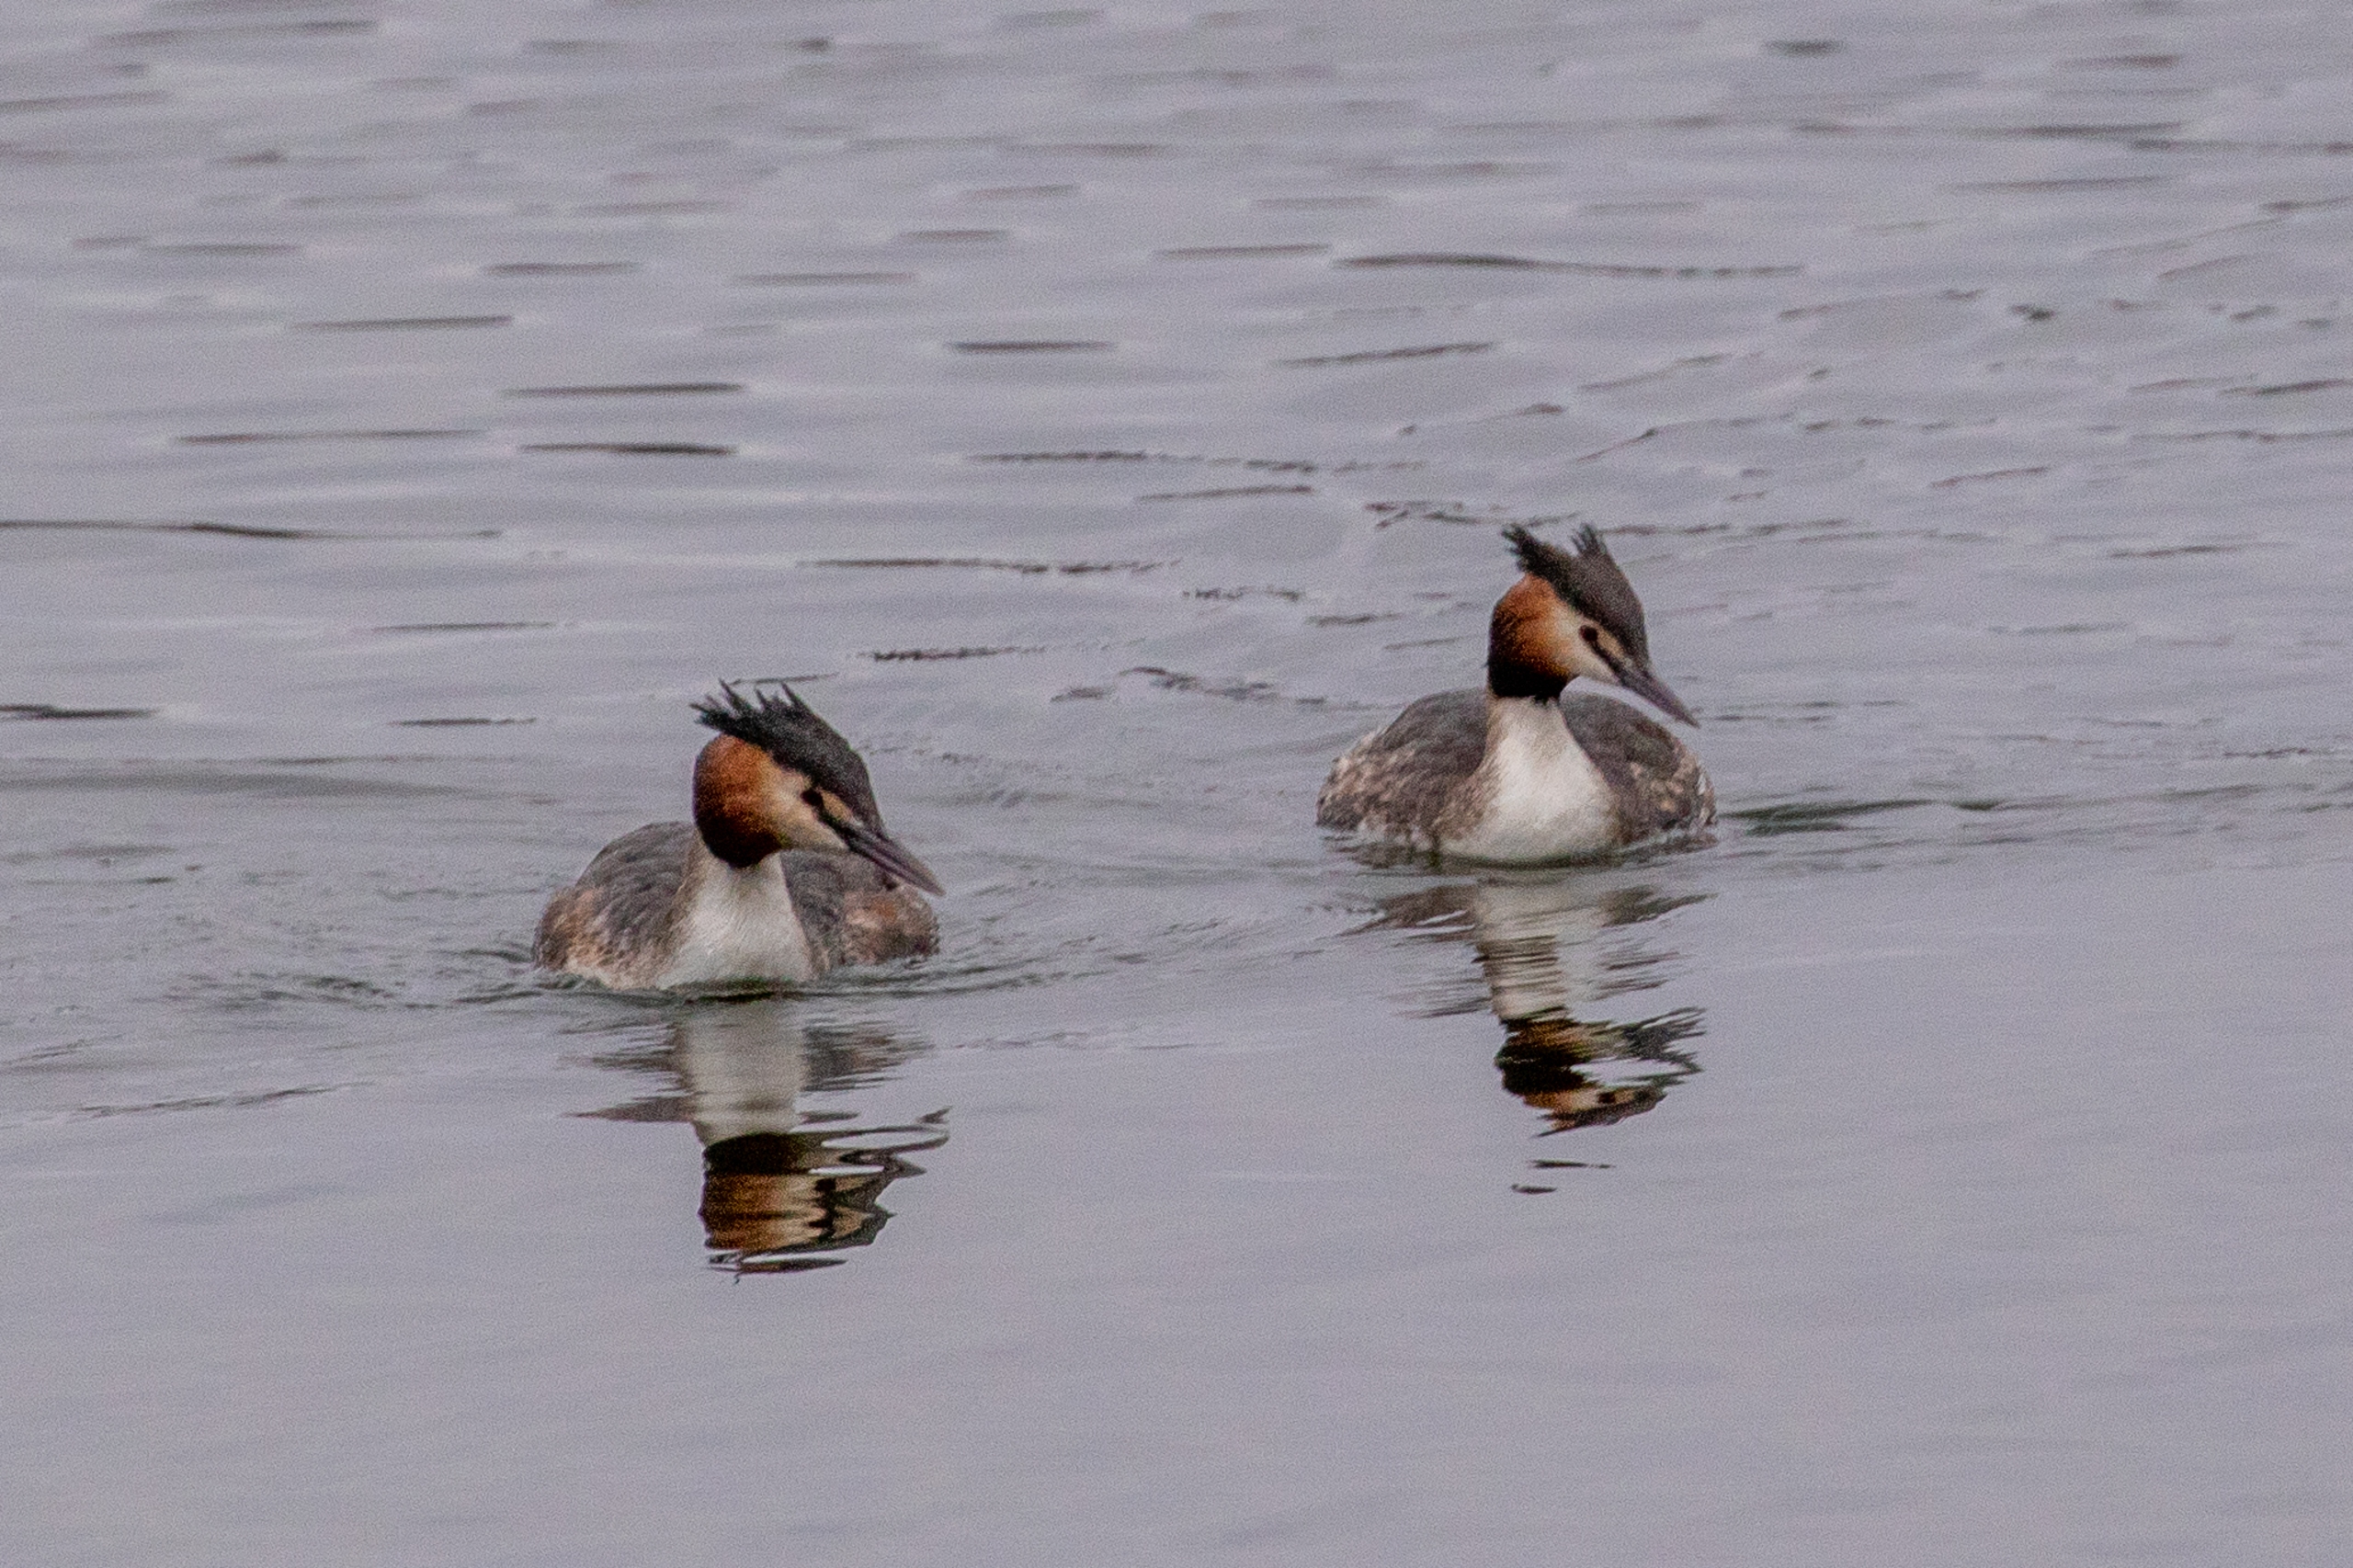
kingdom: Animalia
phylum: Chordata
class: Aves
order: Podicipediformes
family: Podicipedidae
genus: Podiceps
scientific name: Podiceps cristatus
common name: Toppet lappedykker
